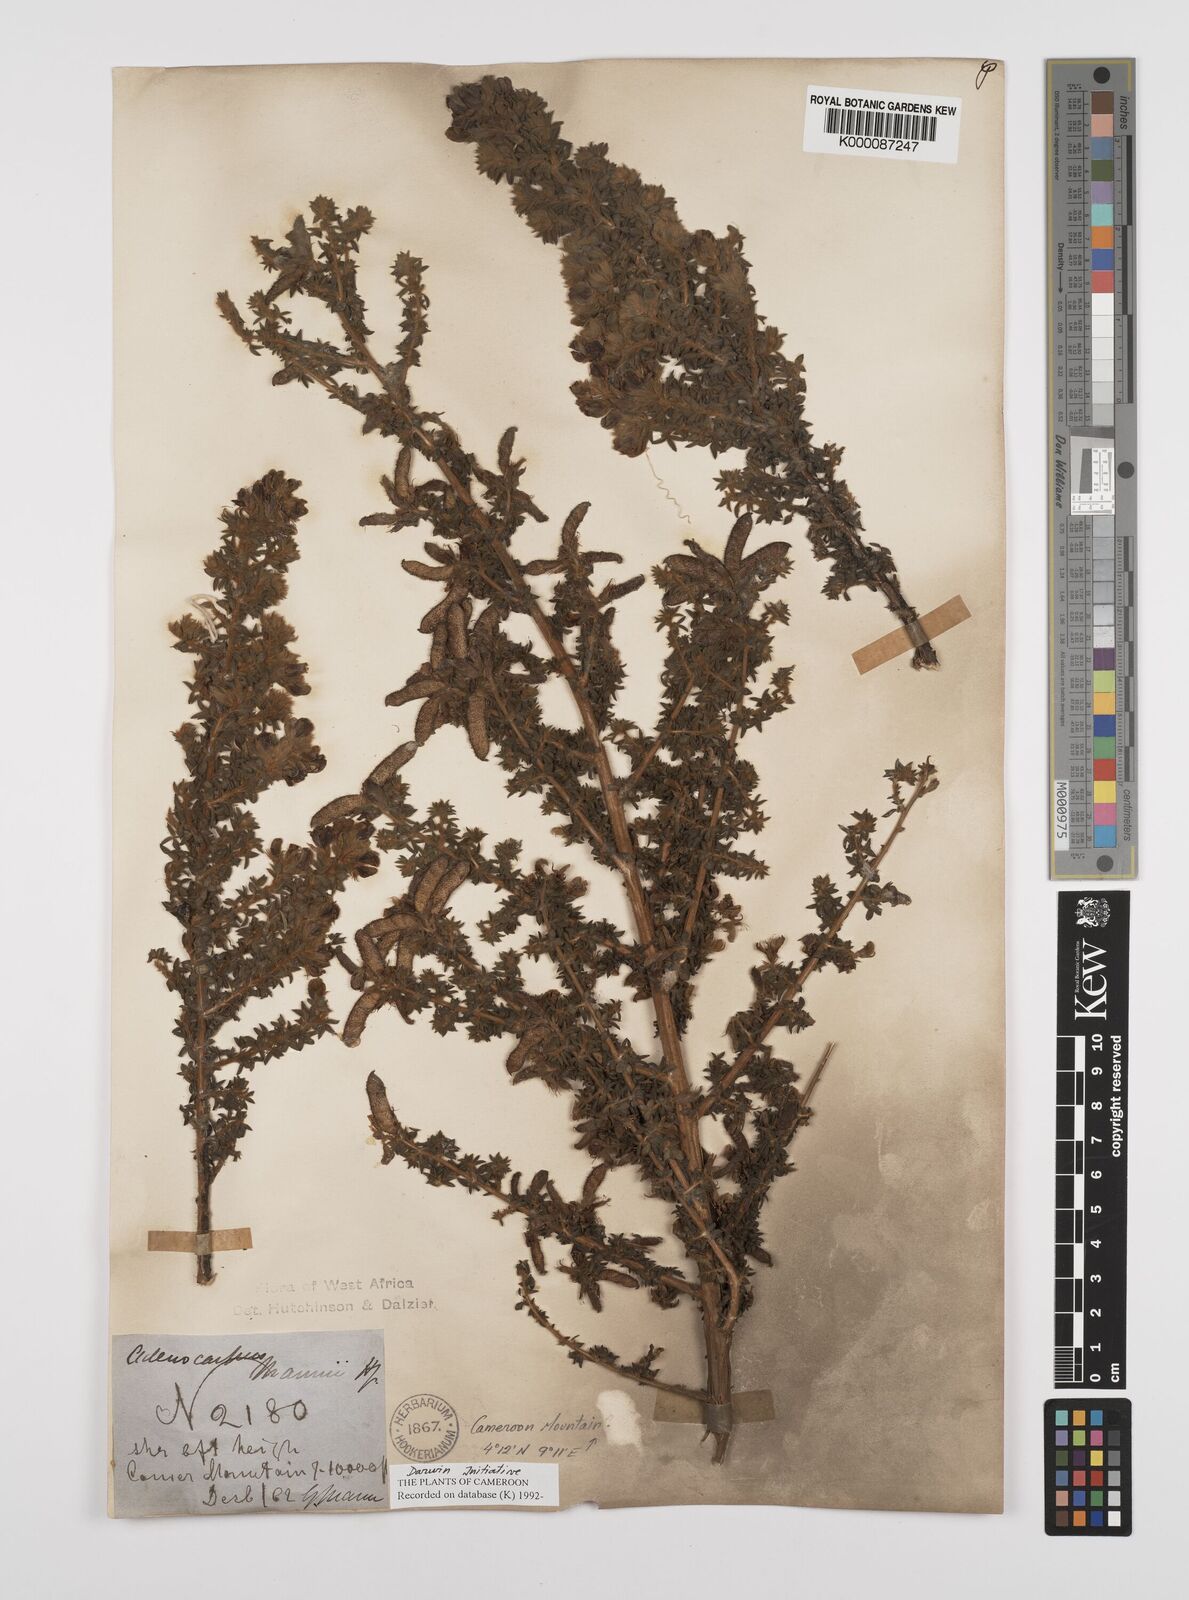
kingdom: Plantae
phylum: Tracheophyta
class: Magnoliopsida
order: Fabales
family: Fabaceae
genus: Adenocarpus
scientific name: Adenocarpus mannii
